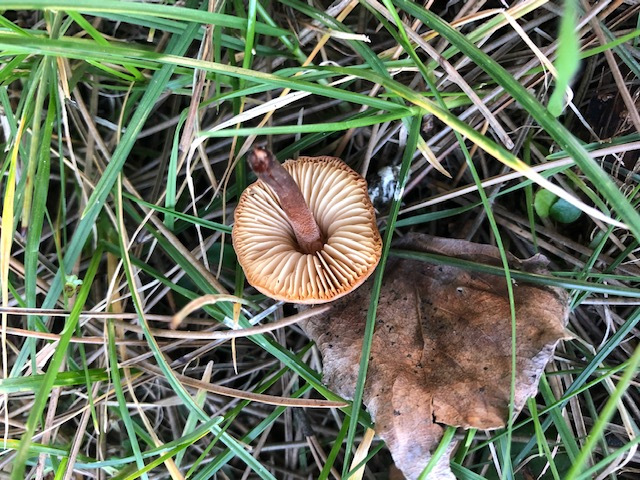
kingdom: Fungi
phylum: Basidiomycota
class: Agaricomycetes
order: Agaricales
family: Macrocystidiaceae
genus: Macrocystidia
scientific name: Macrocystidia
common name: agurkehat
